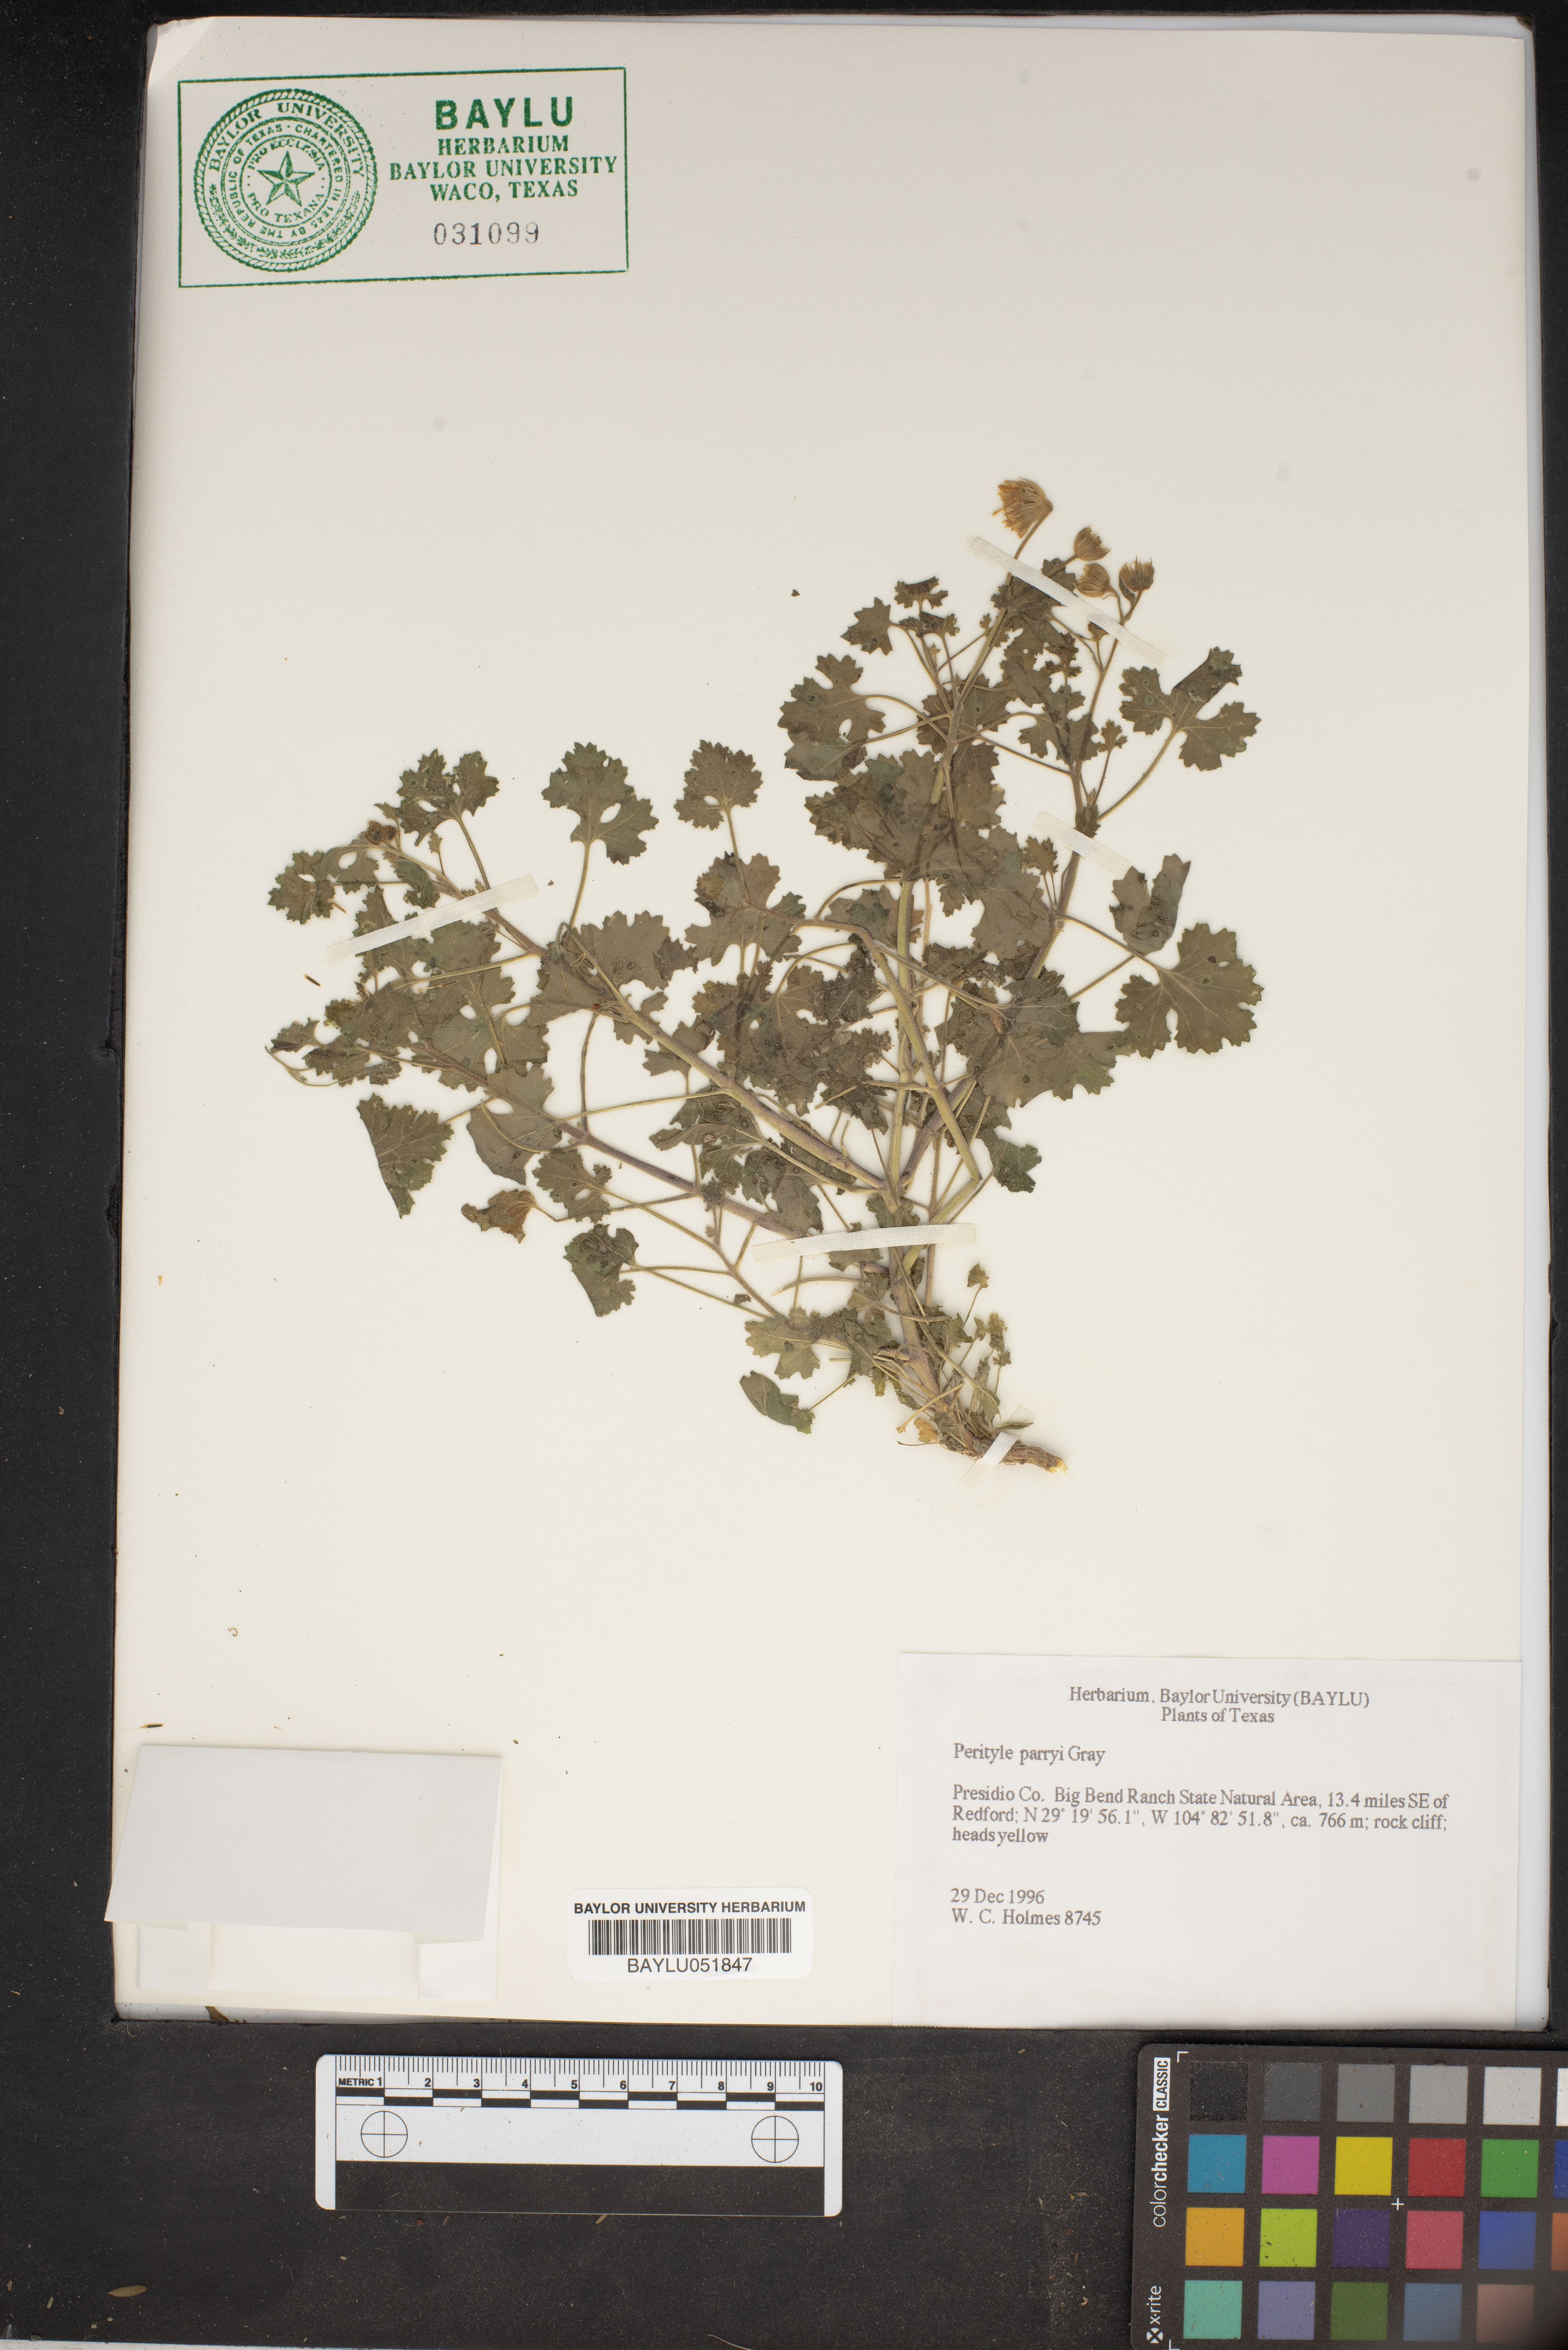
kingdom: Plantae
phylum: Tracheophyta
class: Magnoliopsida
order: Asterales
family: Asteraceae
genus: Laphamia
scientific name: Laphamia parryi
